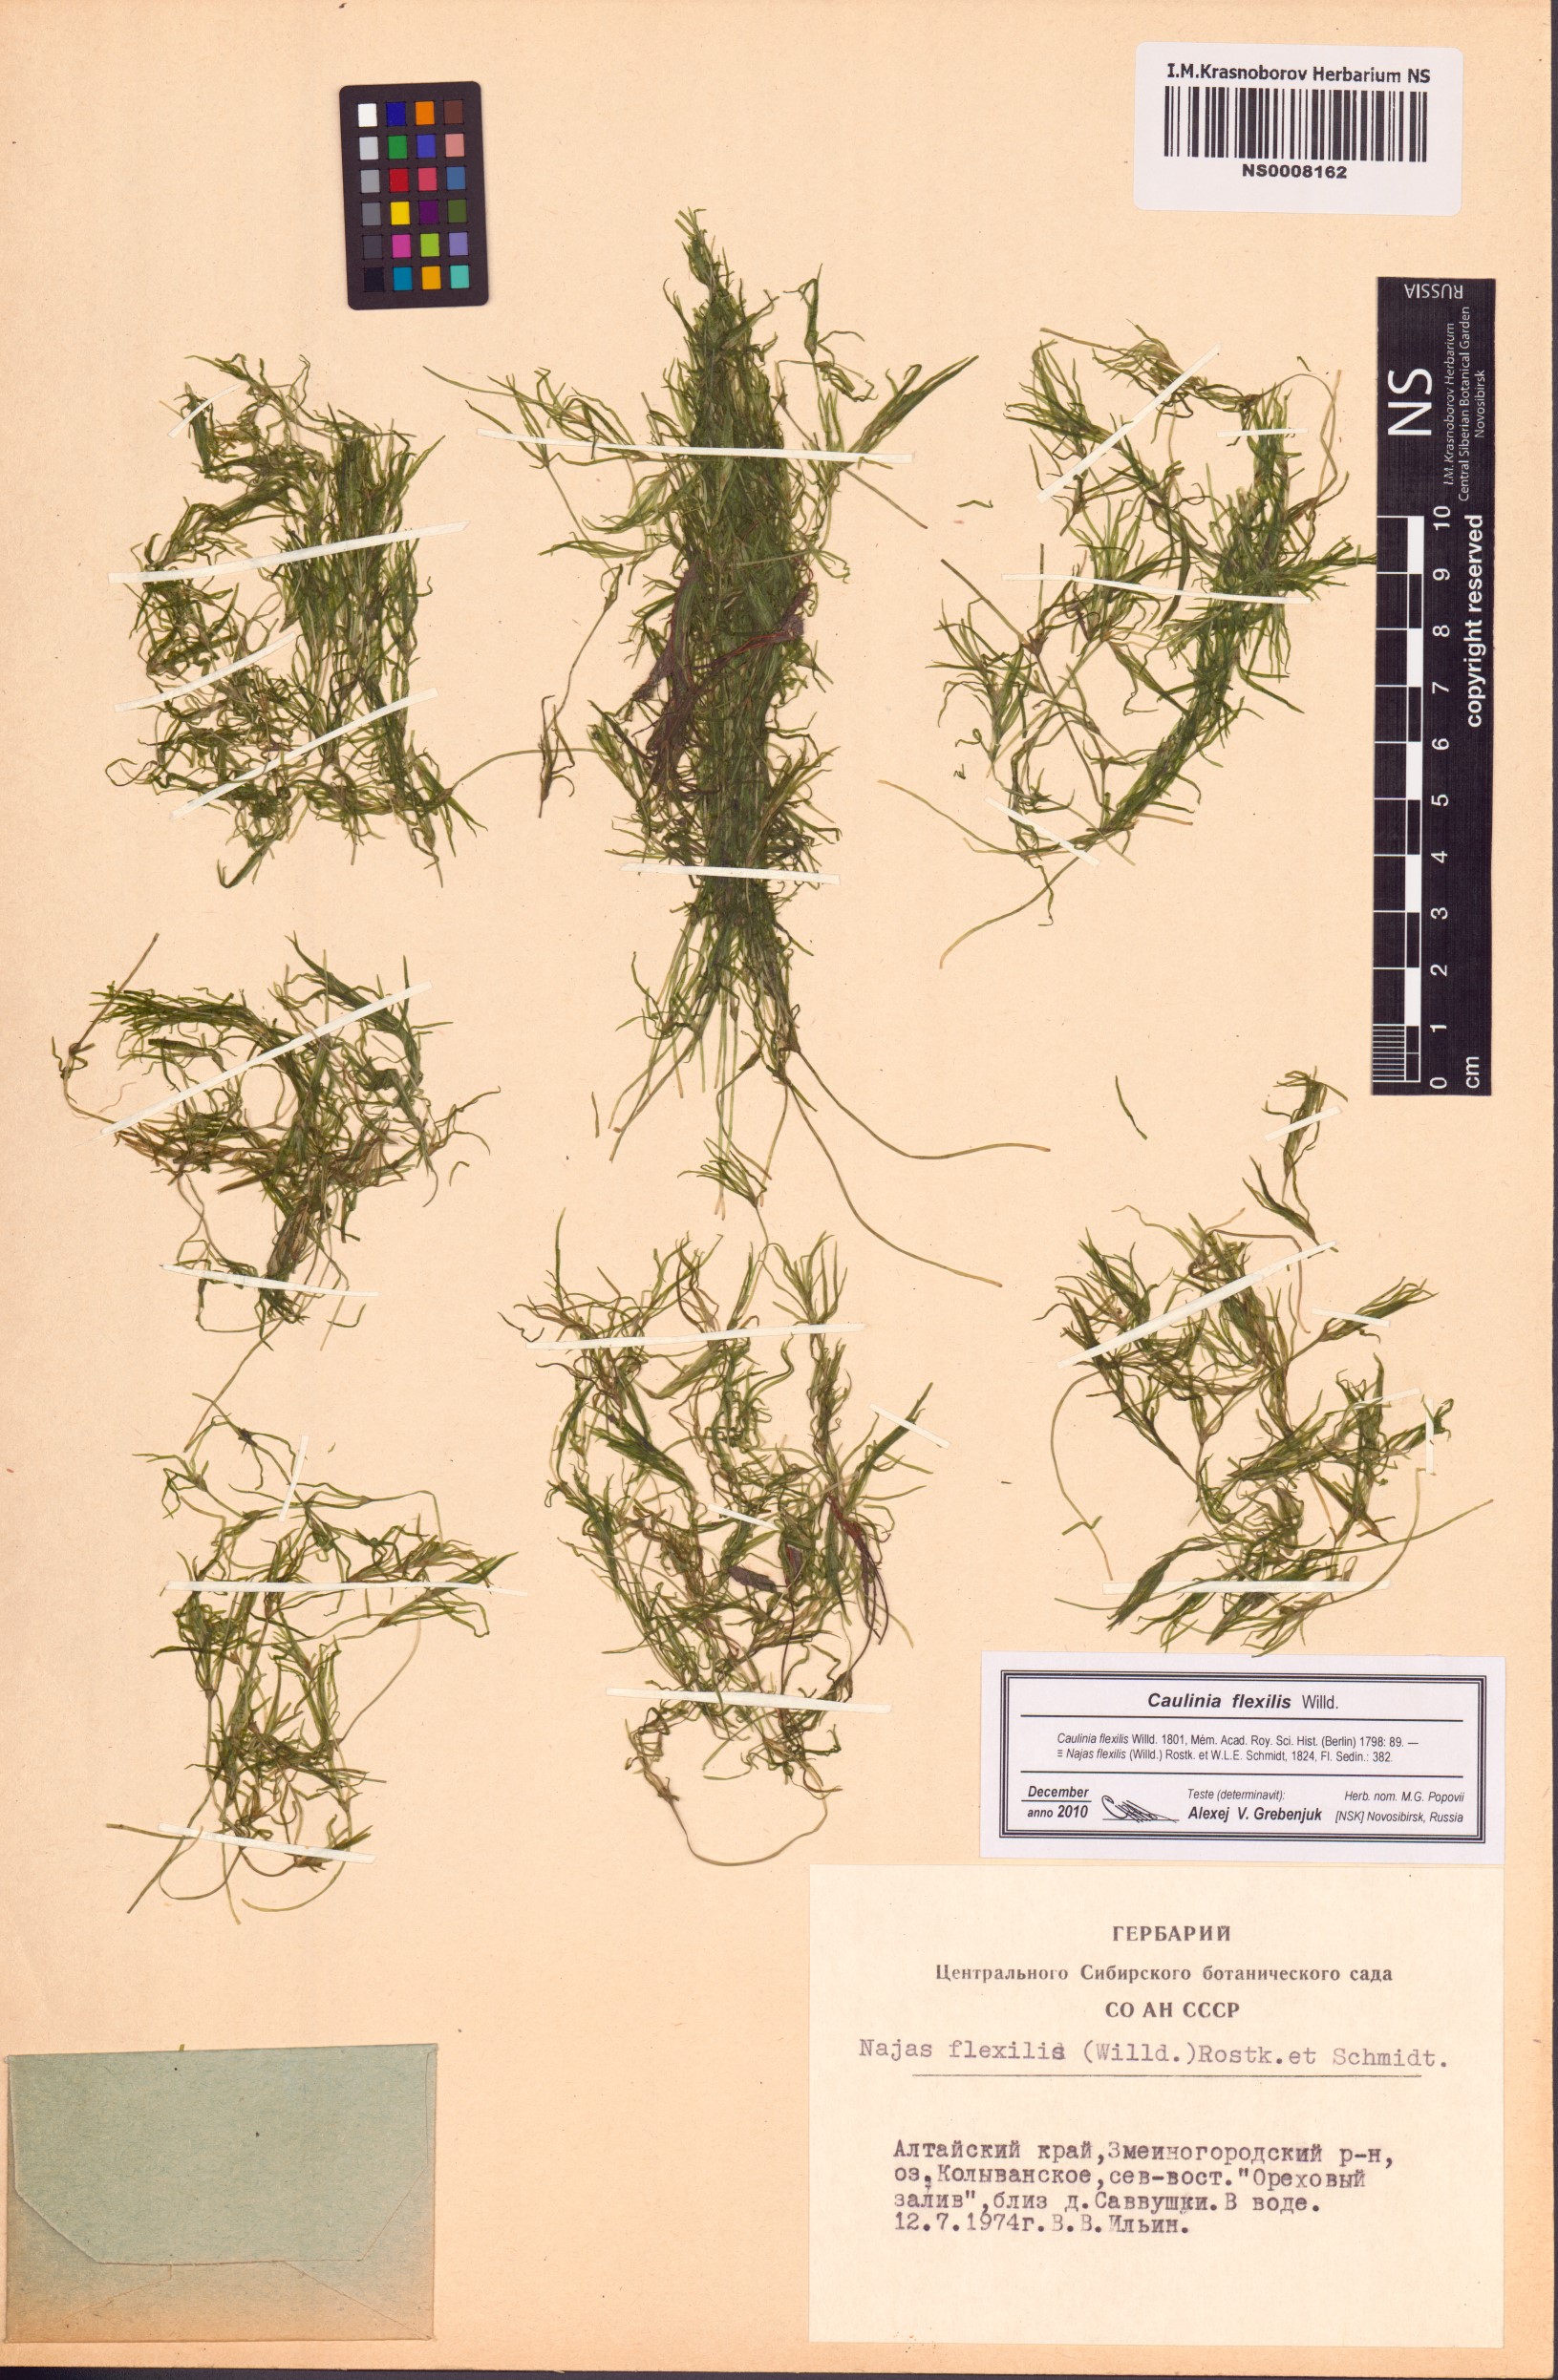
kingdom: Plantae
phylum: Tracheophyta
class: Liliopsida
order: Alismatales
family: Hydrocharitaceae
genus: Najas
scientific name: Najas flexilis
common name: Slender naiad
